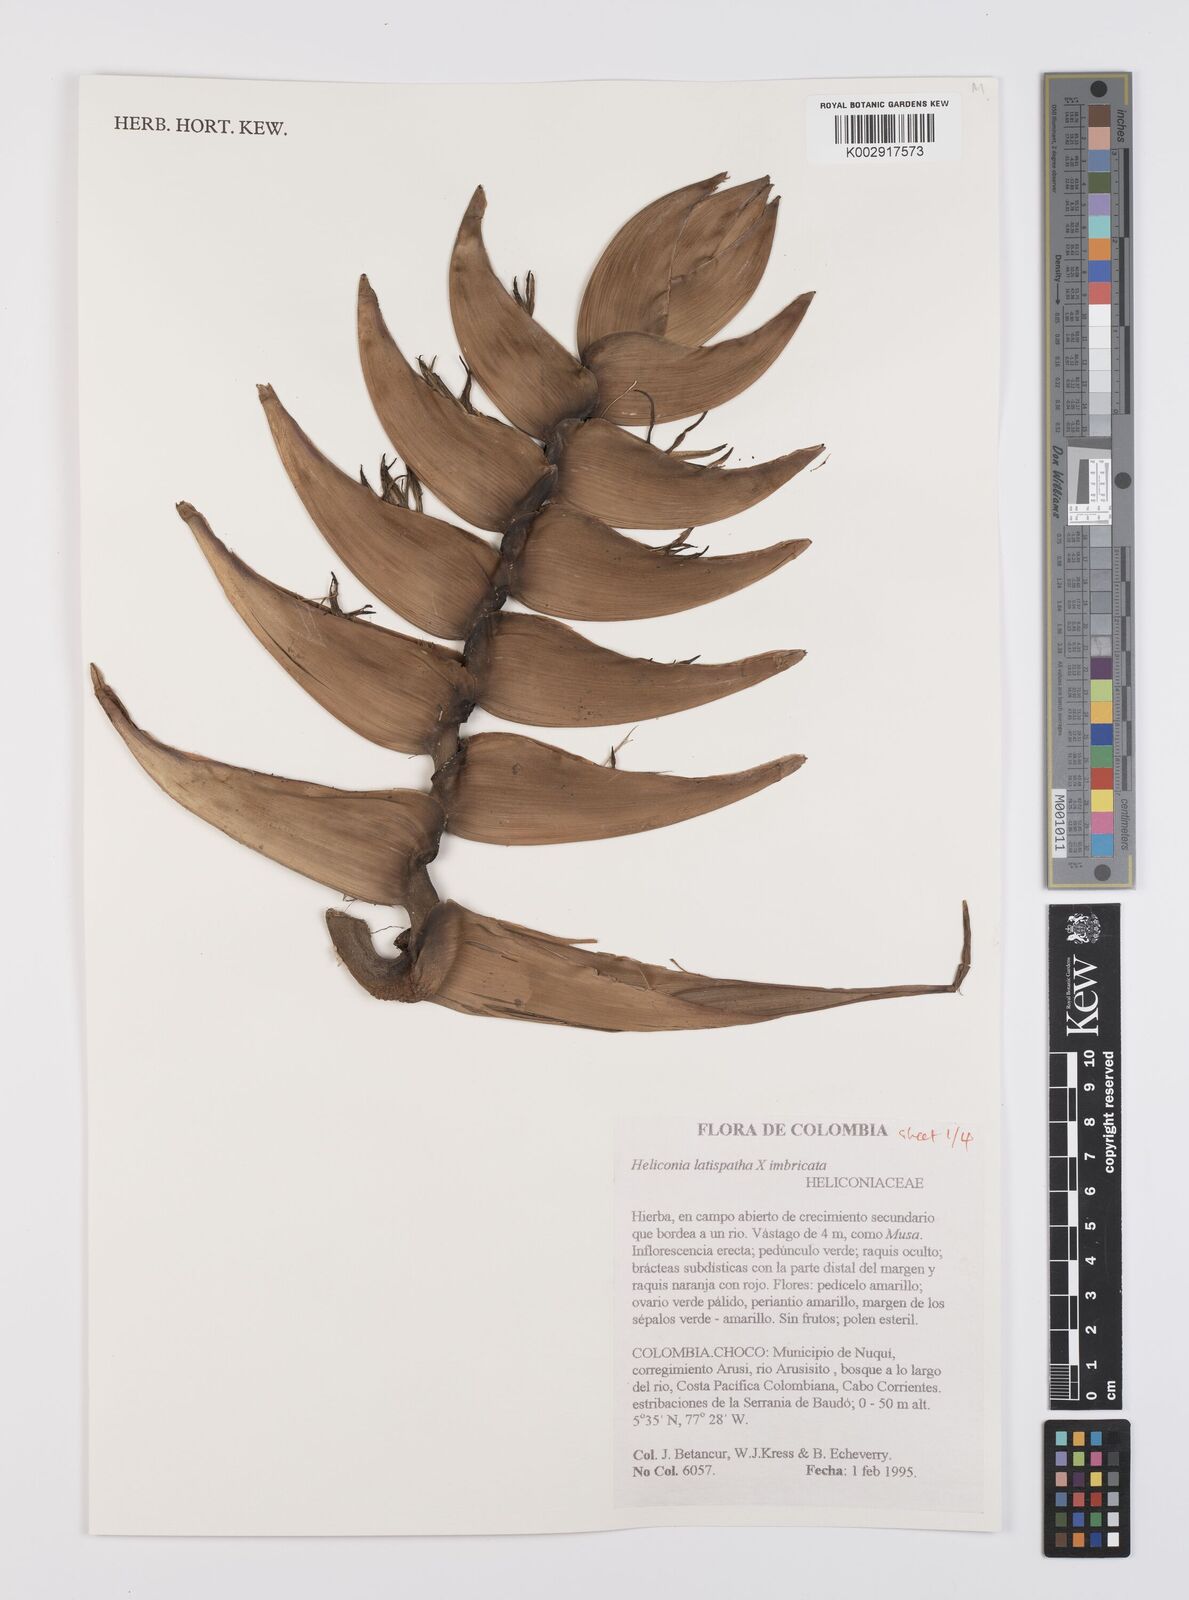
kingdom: Plantae
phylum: Tracheophyta
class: Liliopsida
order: Zingiberales
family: Heliconiaceae
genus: Heliconia
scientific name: Heliconia
